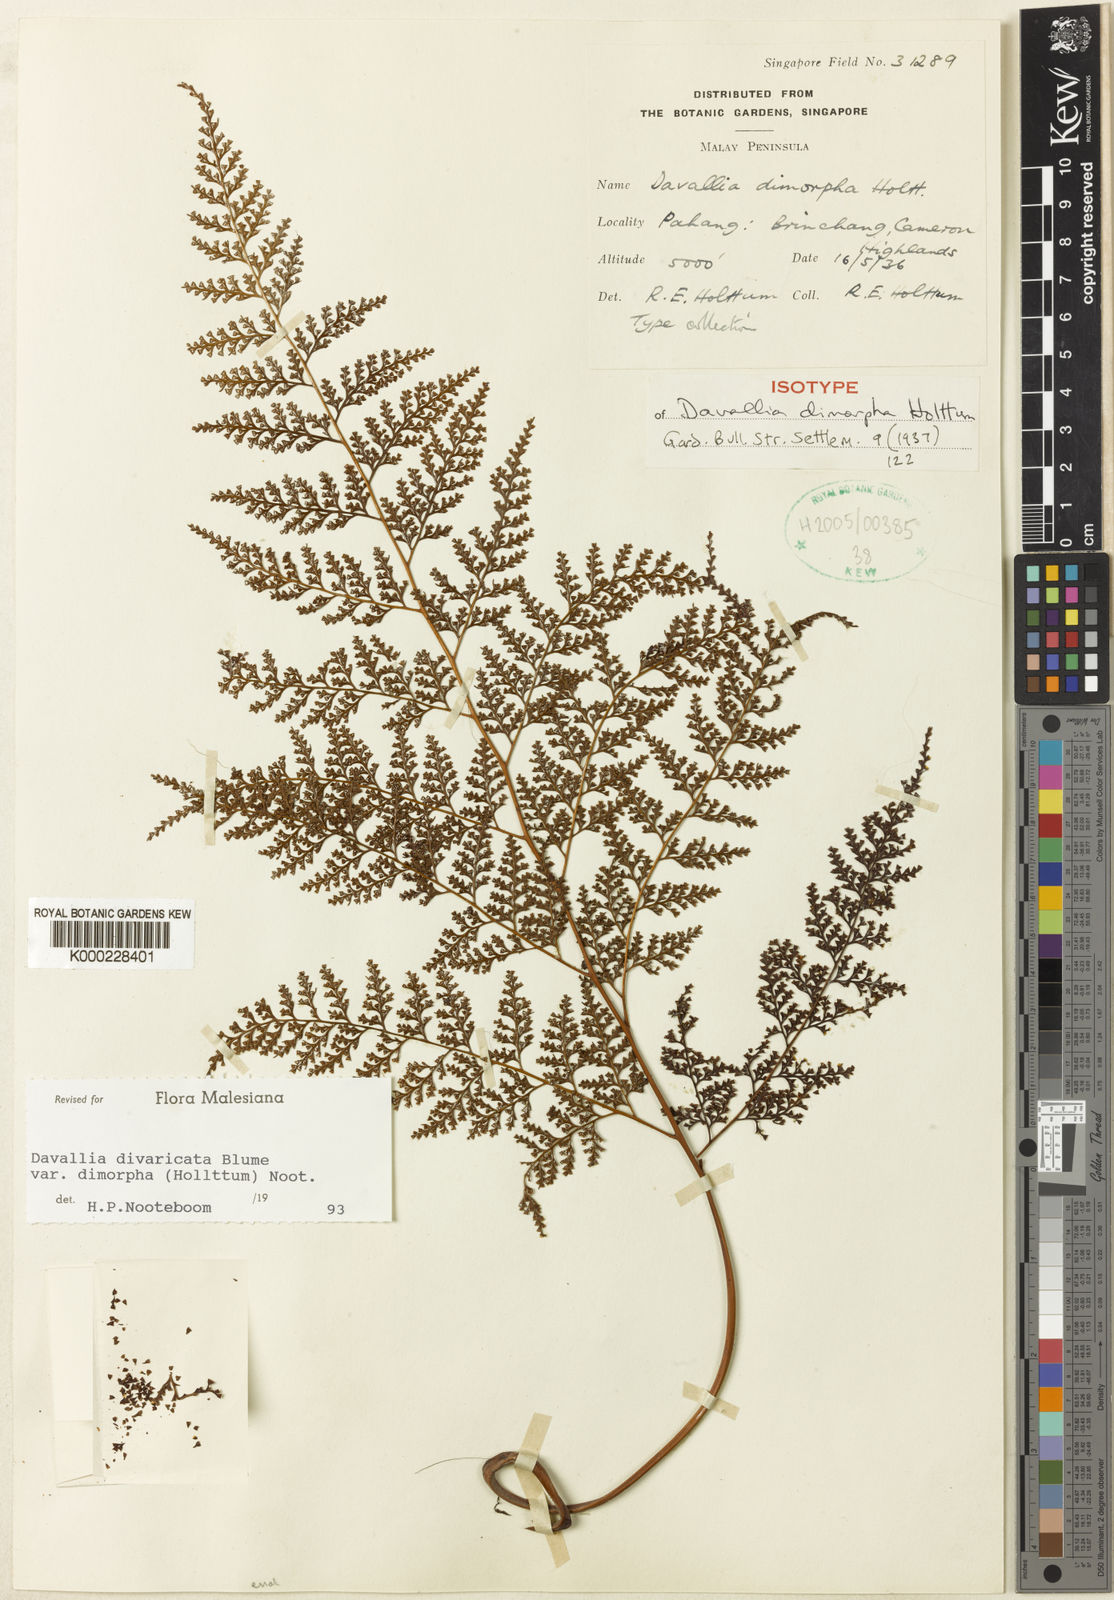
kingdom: Plantae
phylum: Tracheophyta
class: Polypodiopsida
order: Polypodiales
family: Davalliaceae
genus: Davallia
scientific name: Davallia dimorpha
